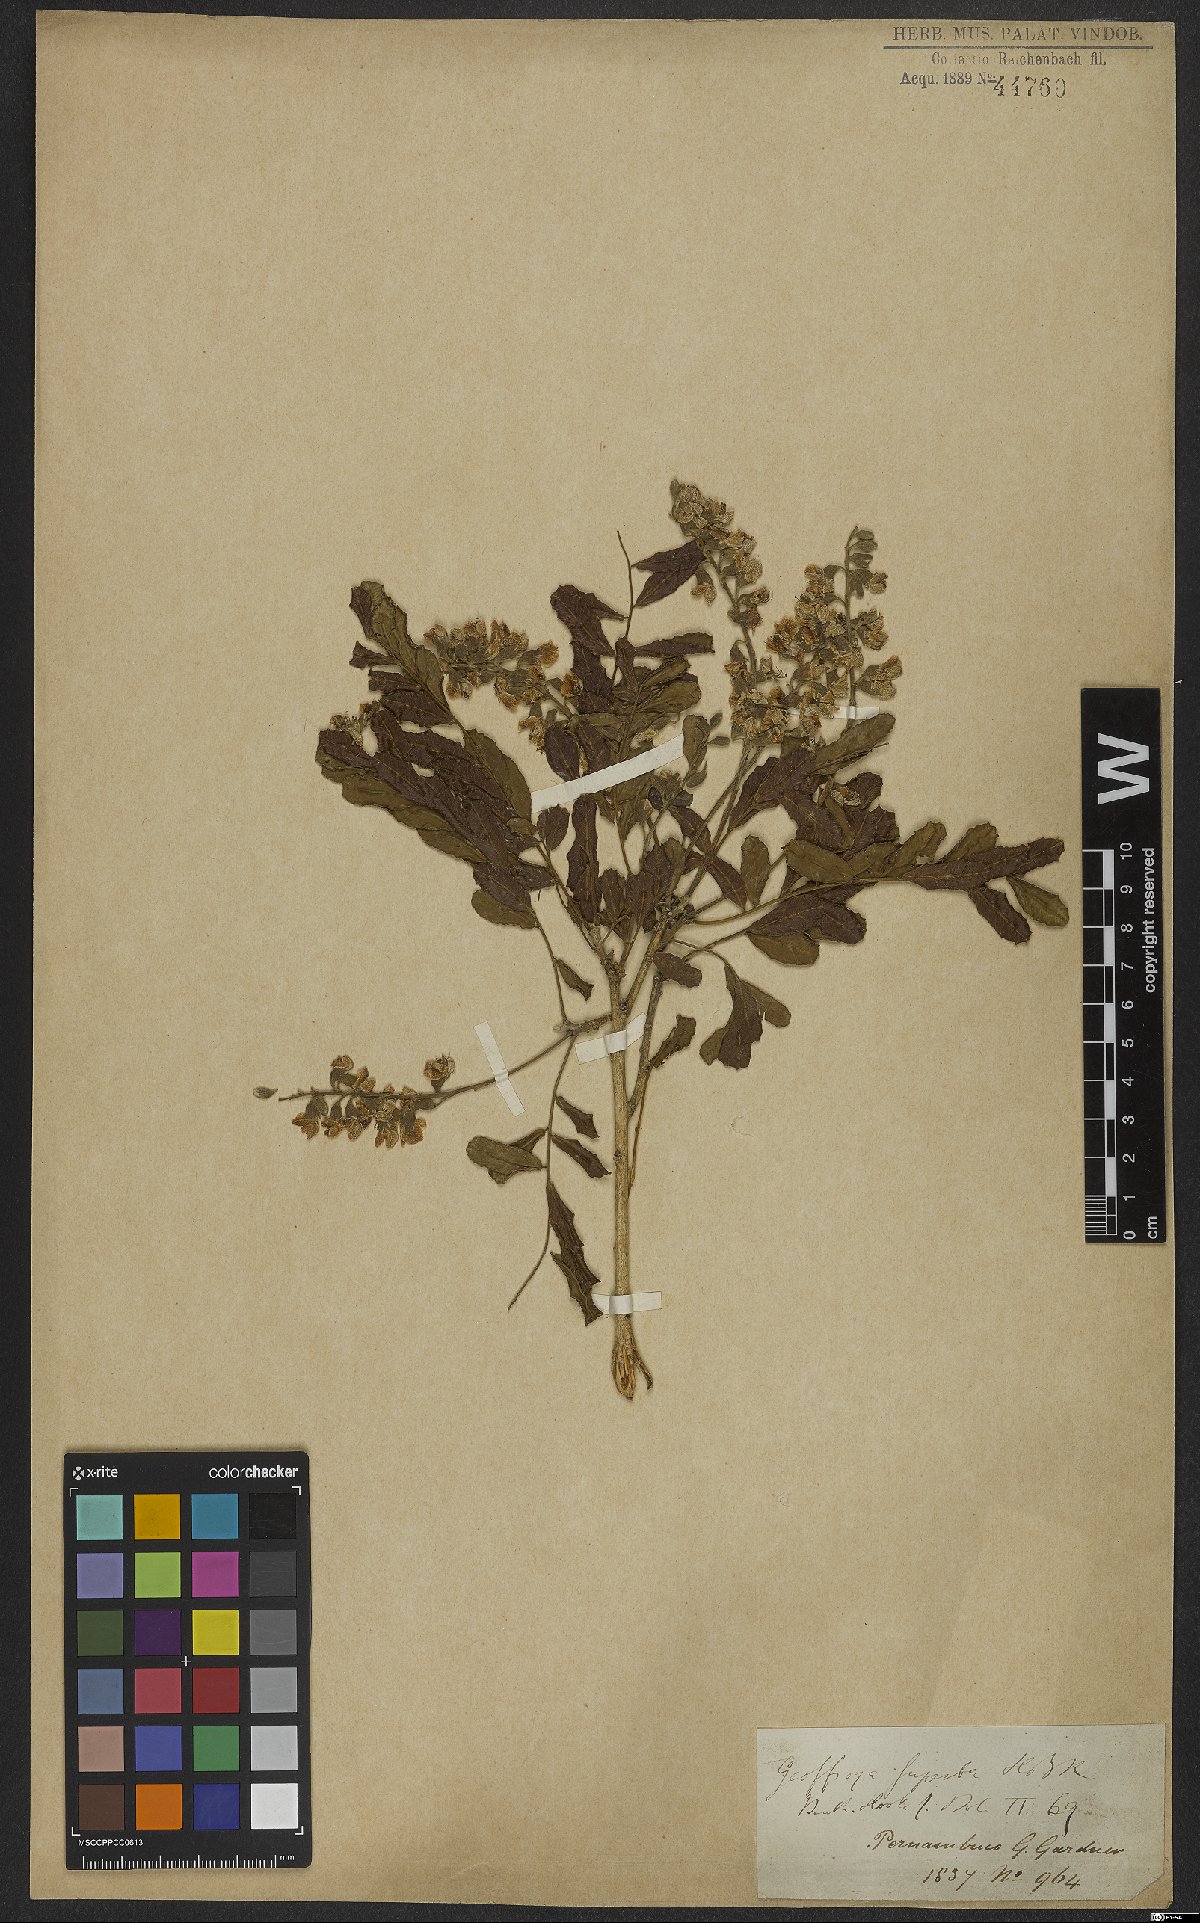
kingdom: Plantae
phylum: Tracheophyta
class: Magnoliopsida
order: Fabales
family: Fabaceae
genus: Geoffroea
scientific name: Geoffroea spinosa
